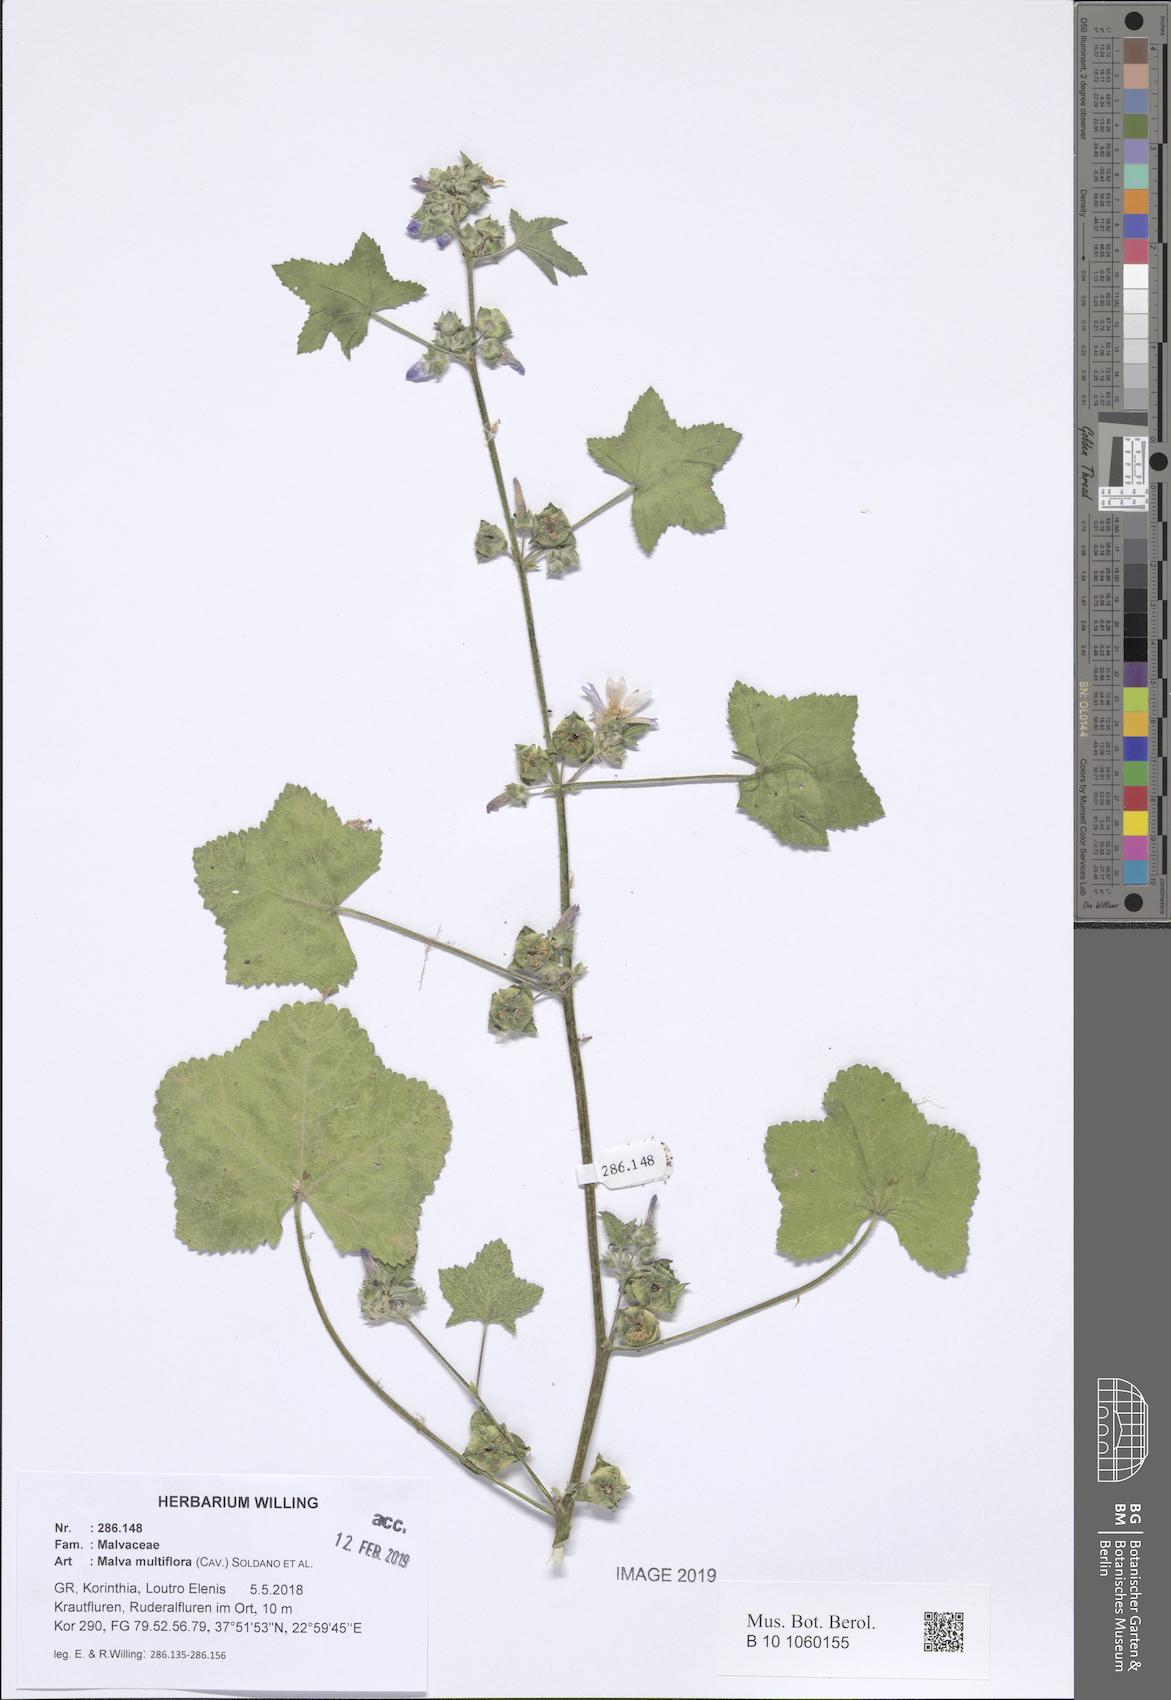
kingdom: Plantae
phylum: Tracheophyta
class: Magnoliopsida
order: Malvales
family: Malvaceae
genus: Malva
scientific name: Malva multiflora
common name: Cheeseweed
